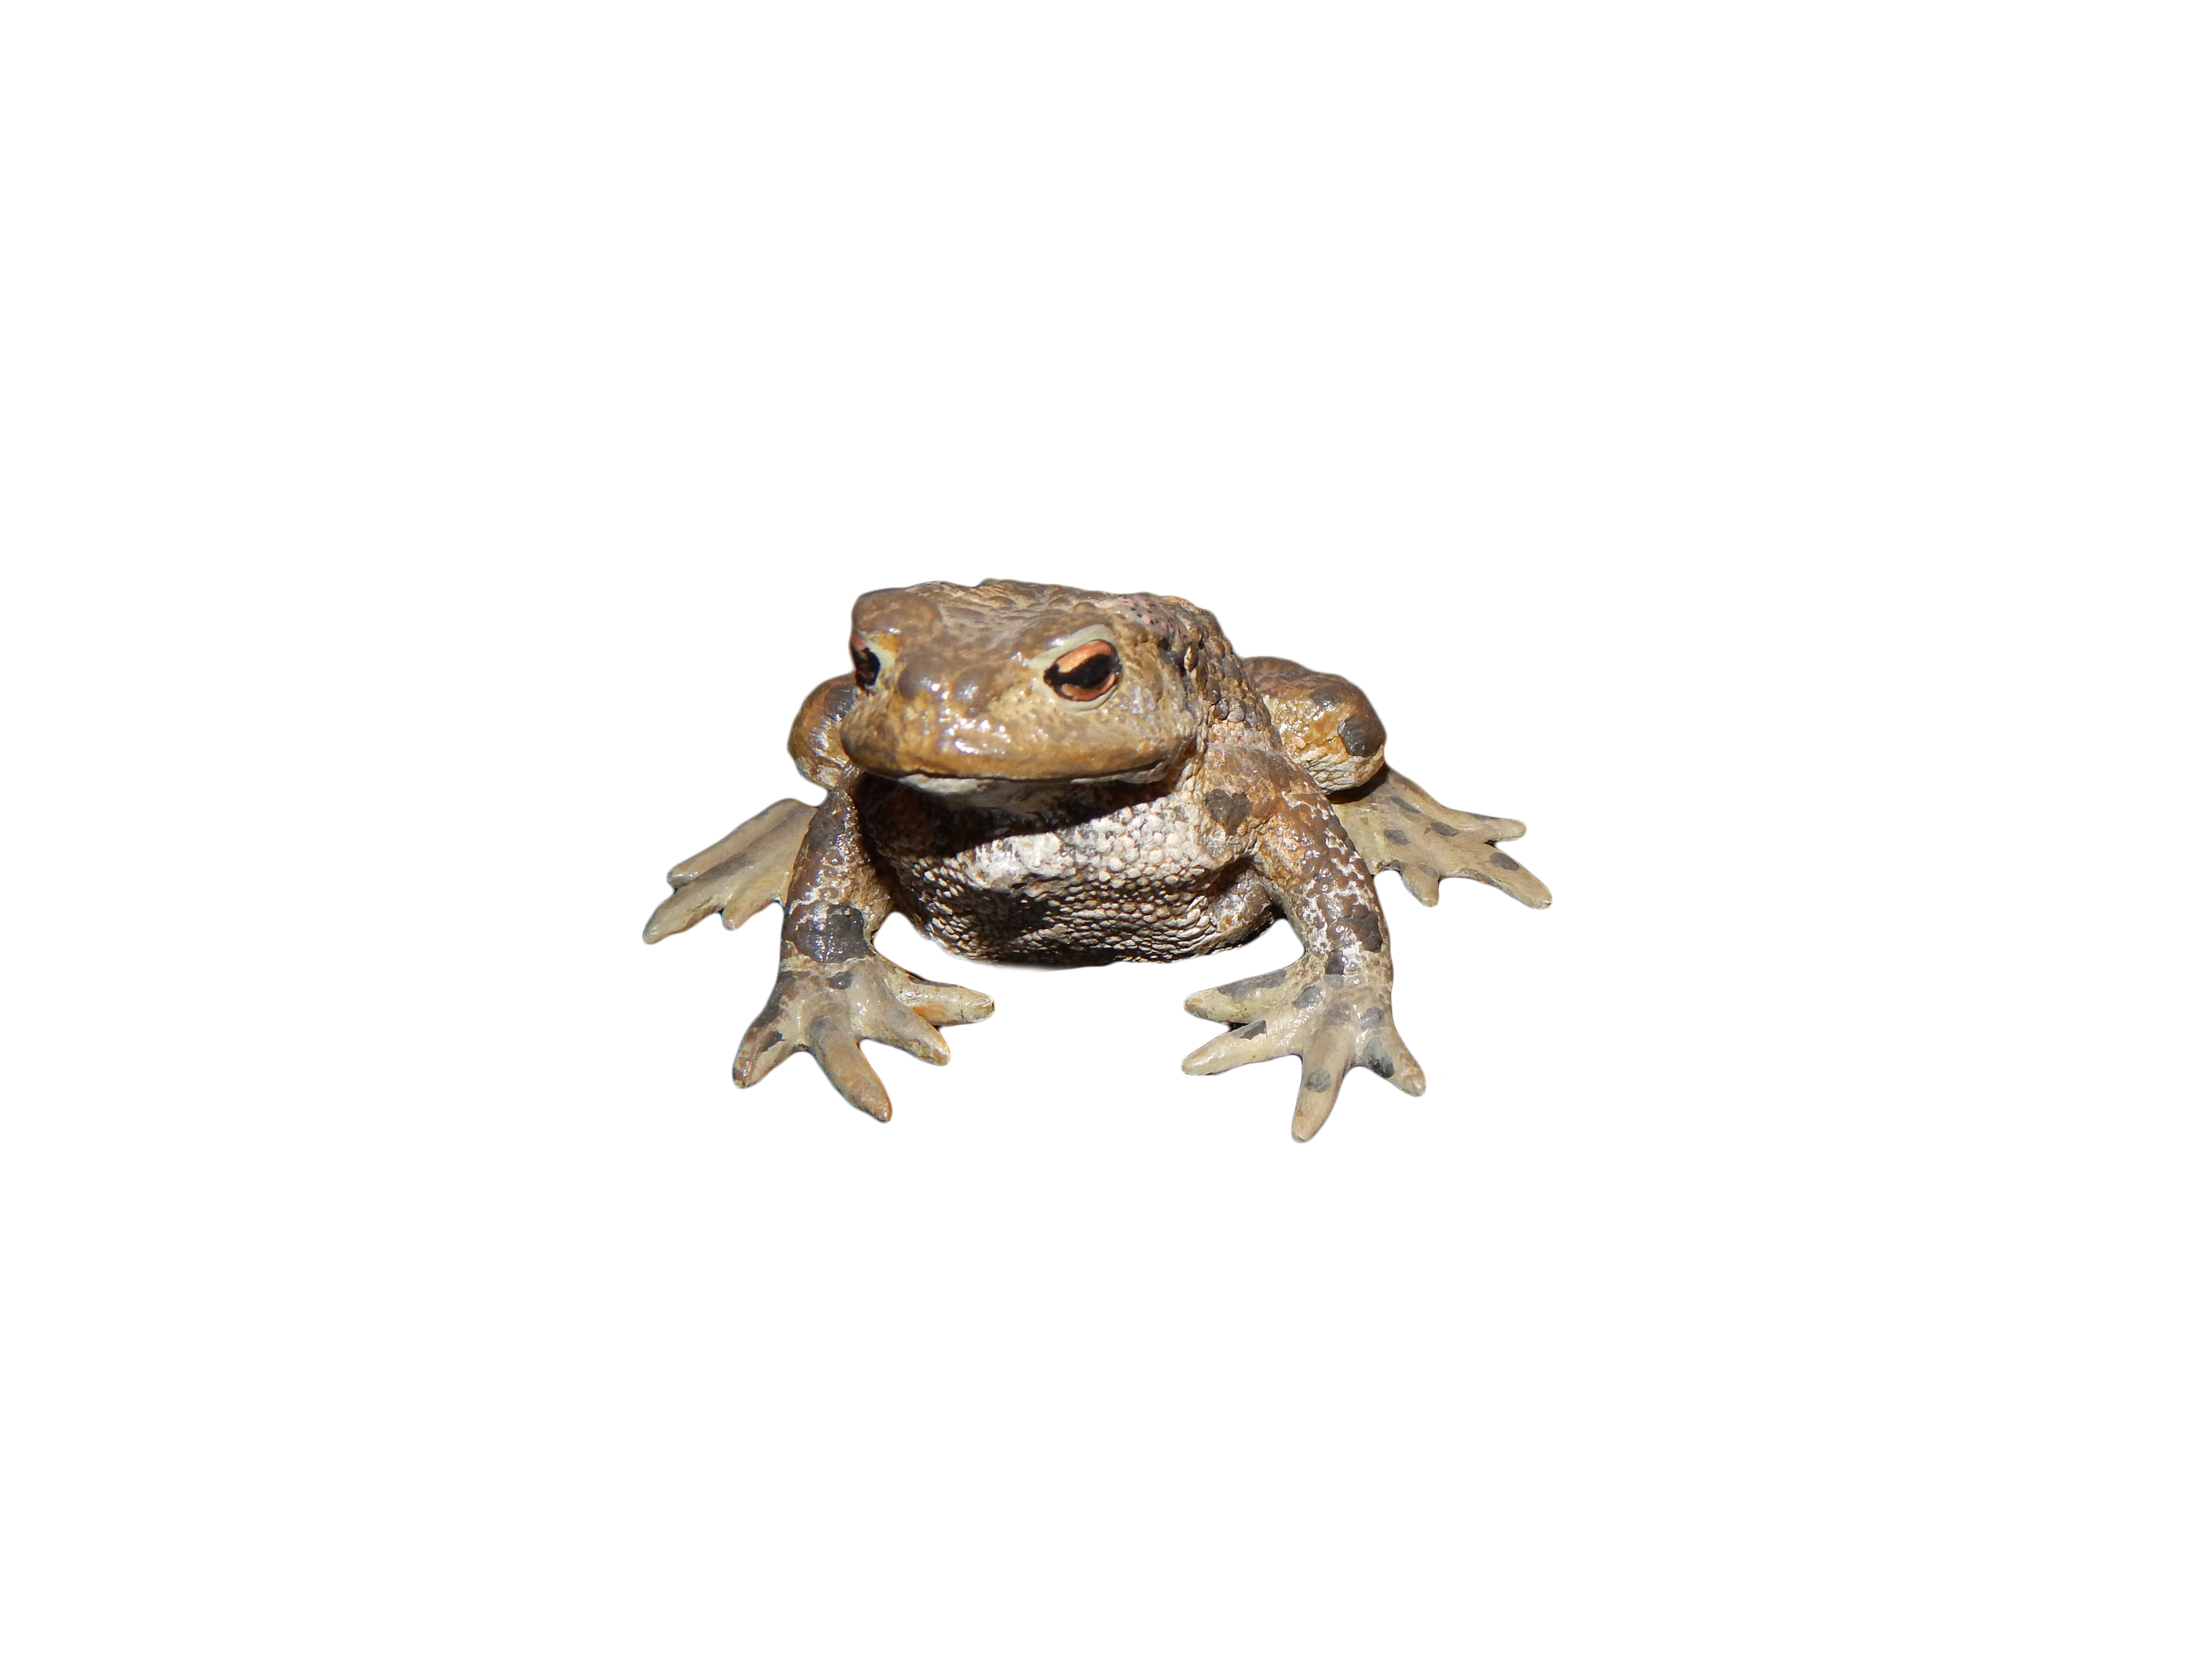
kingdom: Animalia
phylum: Chordata
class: Amphibia
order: Anura
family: Bufonidae
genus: Bufo
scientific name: Bufo bufo
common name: Common toad
